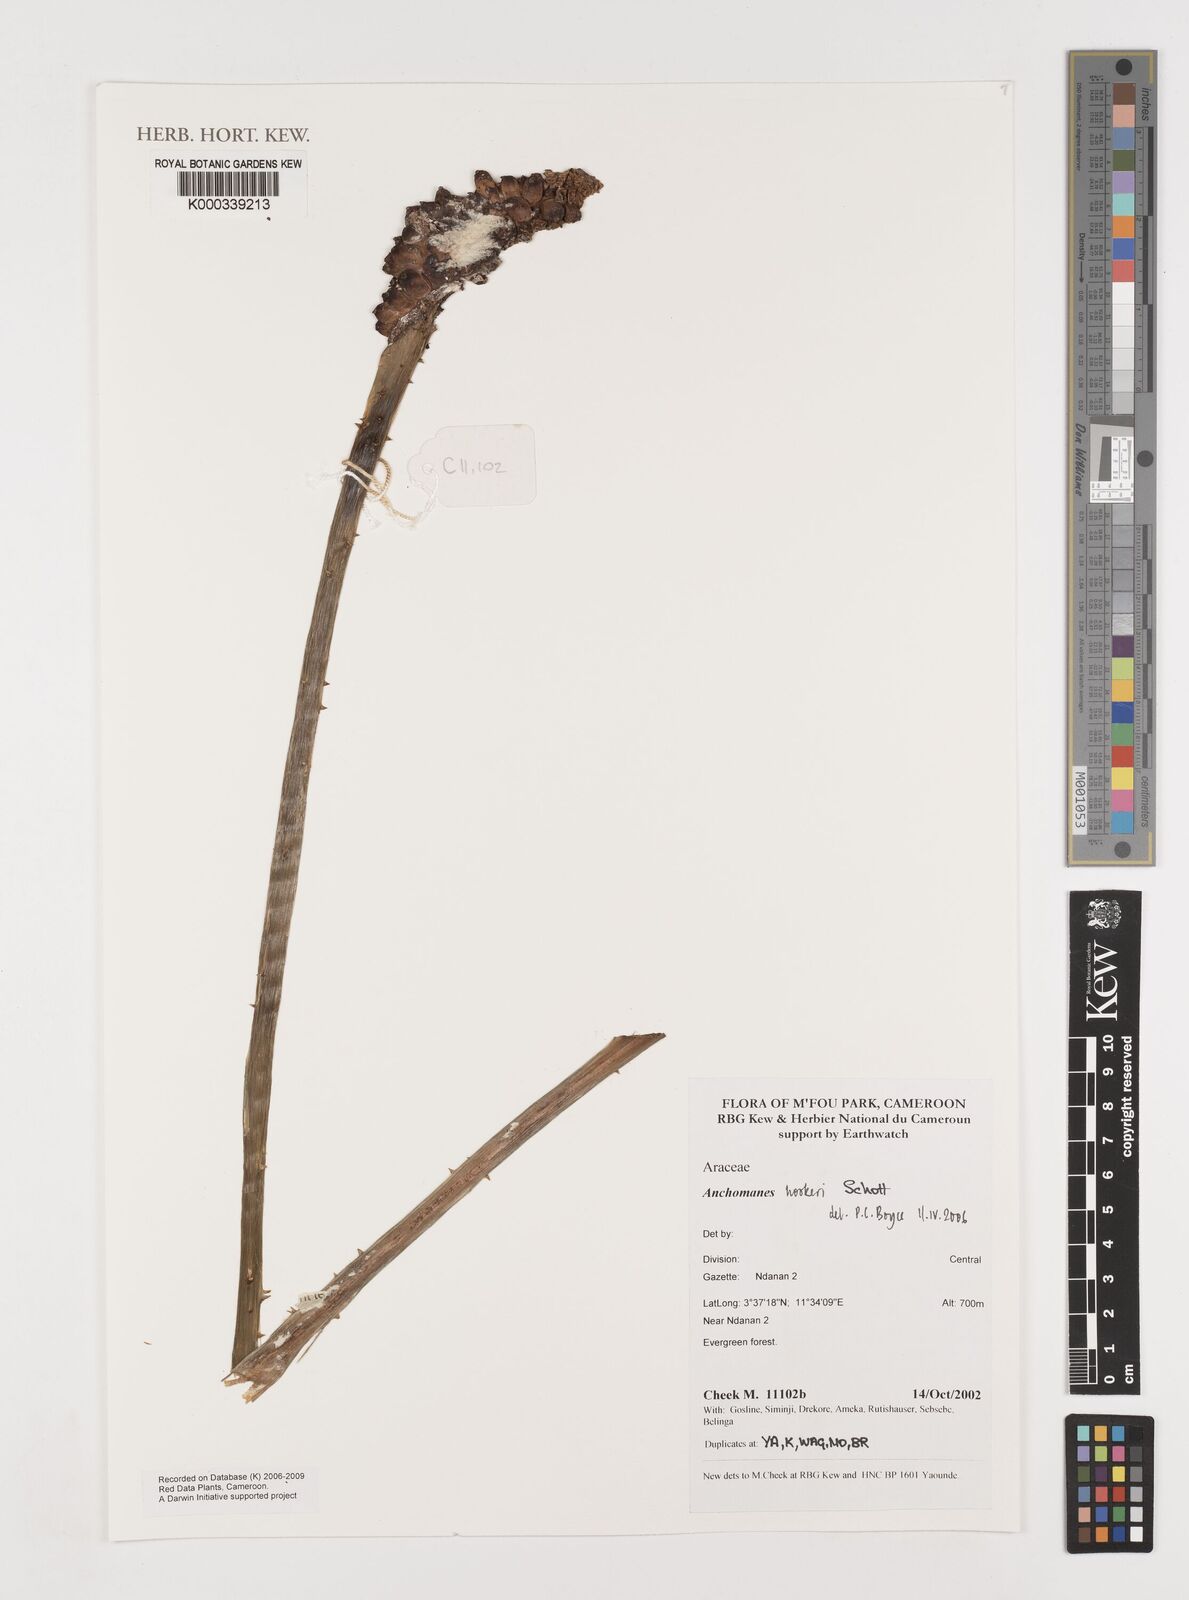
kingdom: Plantae
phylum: Tracheophyta
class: Liliopsida
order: Alismatales
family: Araceae
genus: Anchomanes
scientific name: Anchomanes difformis
